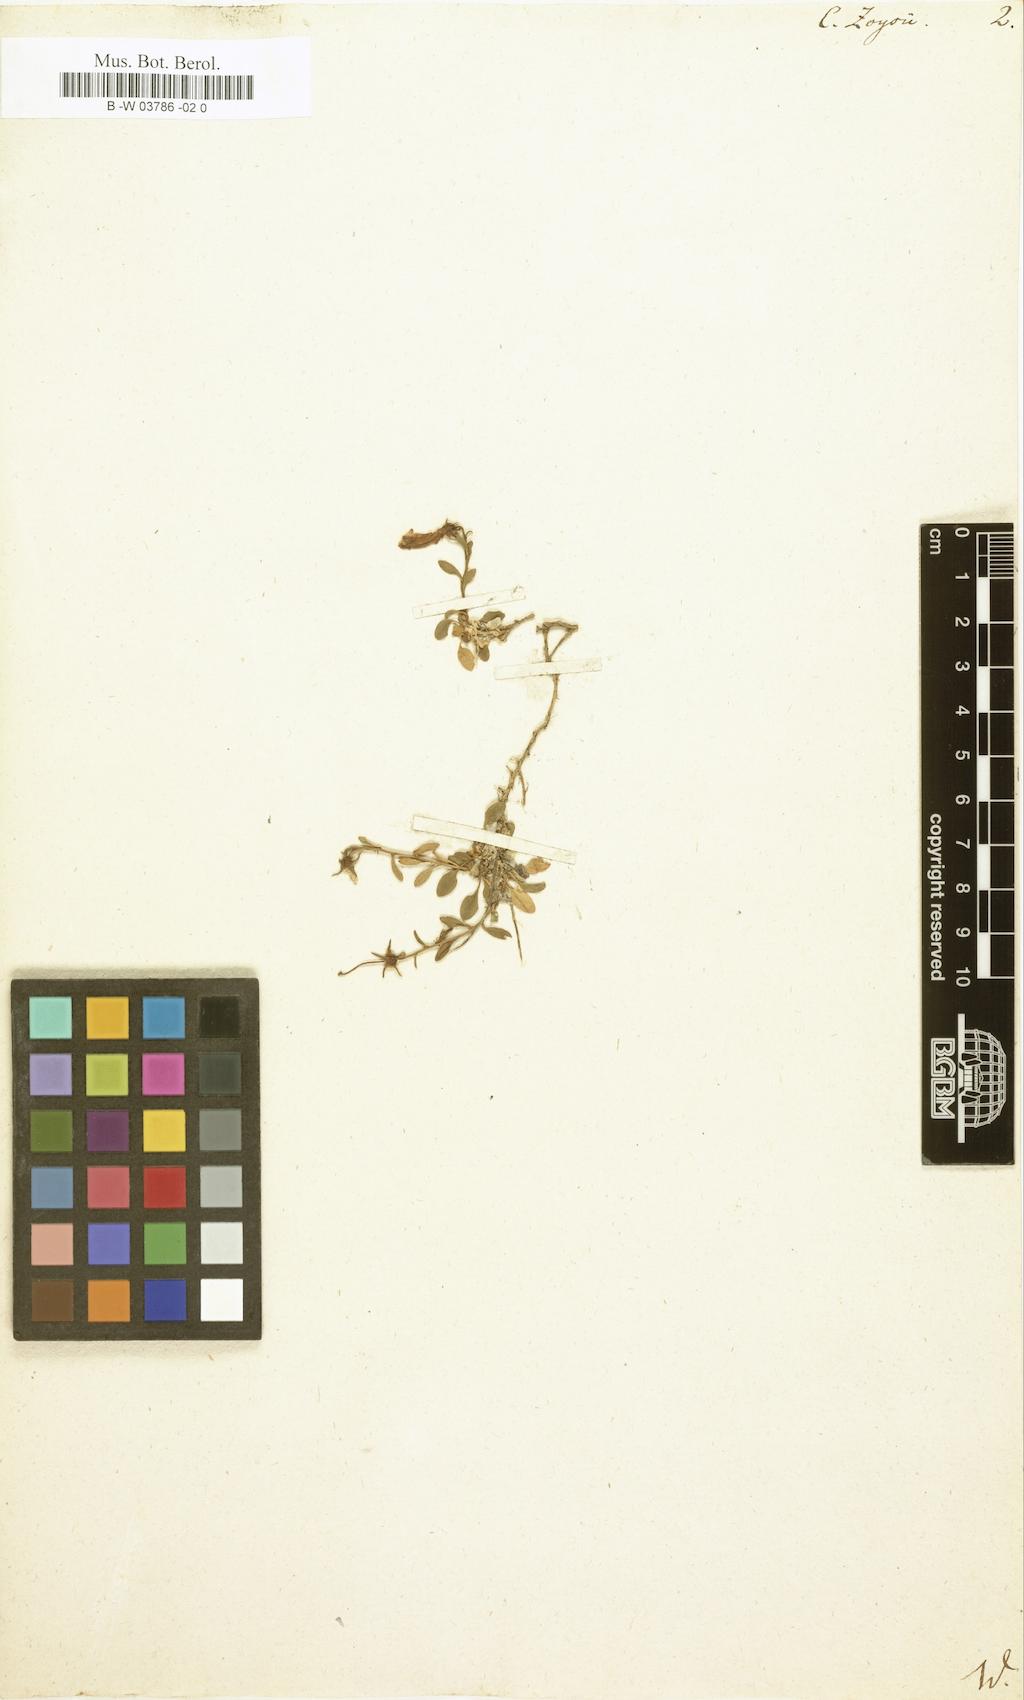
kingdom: Plantae
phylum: Tracheophyta
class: Magnoliopsida
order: Asterales
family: Campanulaceae
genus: Favratia
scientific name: Favratia zoysii
